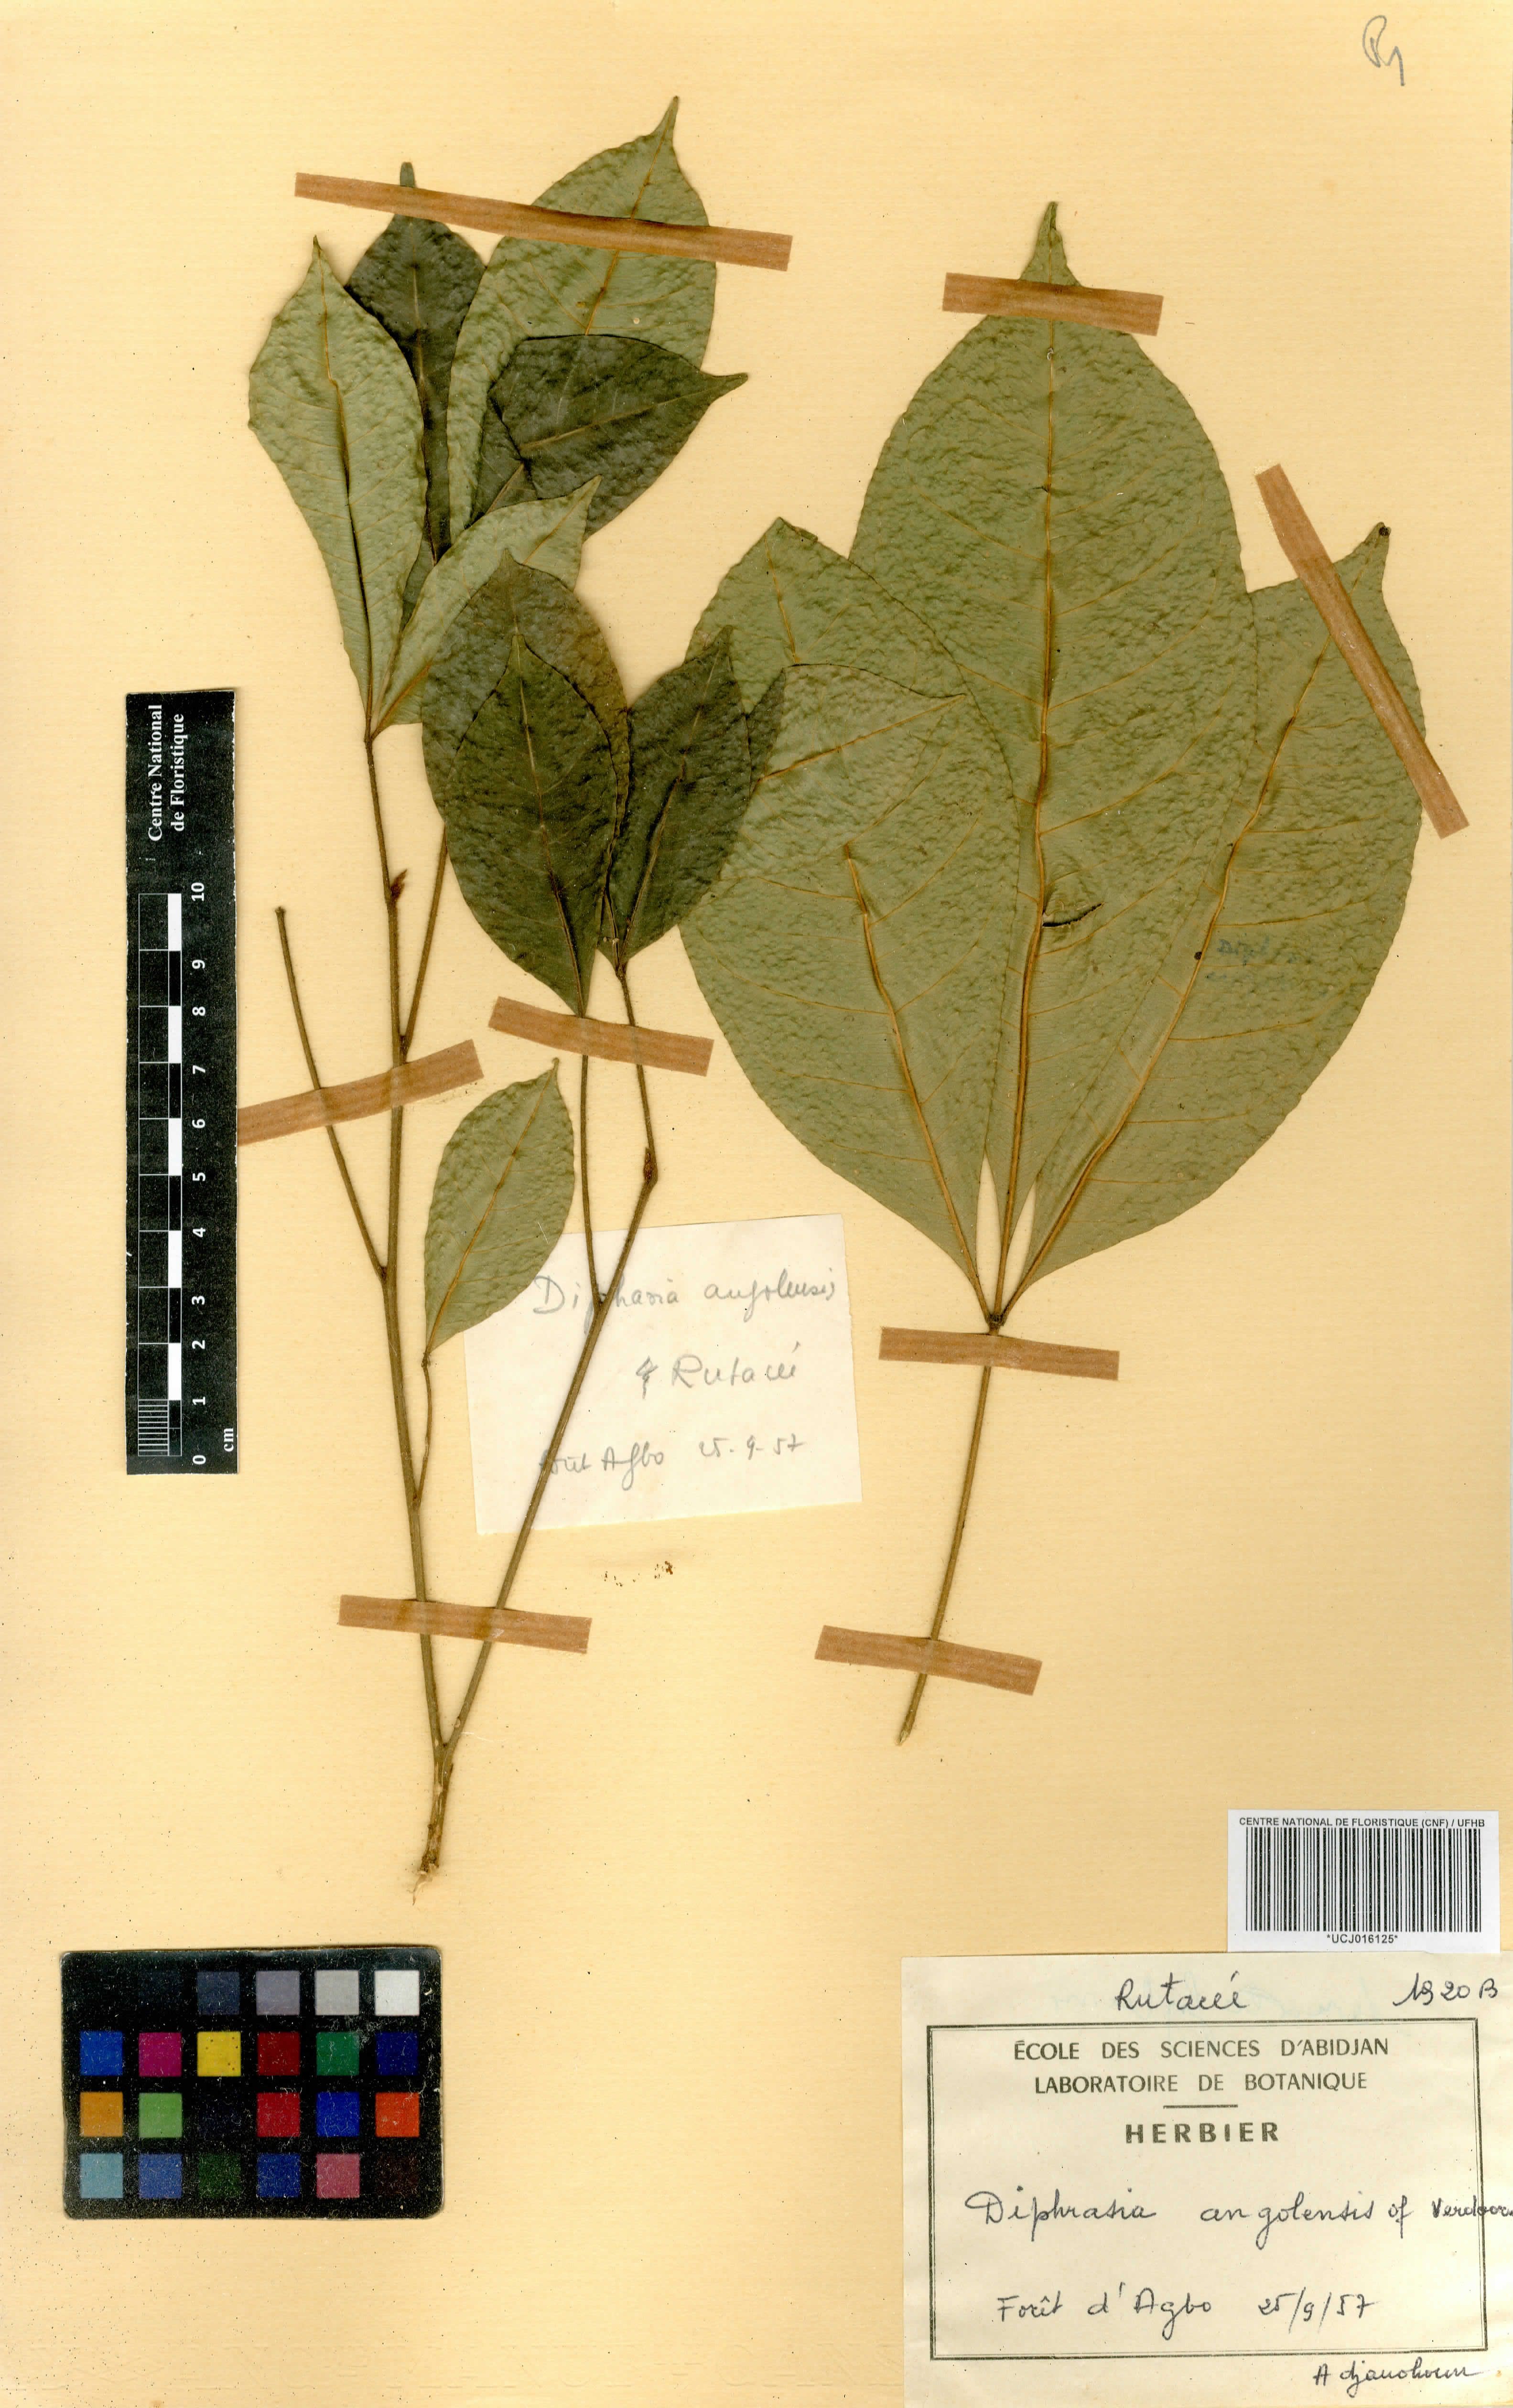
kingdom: Plantae
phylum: Tracheophyta
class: Magnoliopsida
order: Sapindales
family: Rutaceae
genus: Vepris
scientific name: Vepris hiernii
